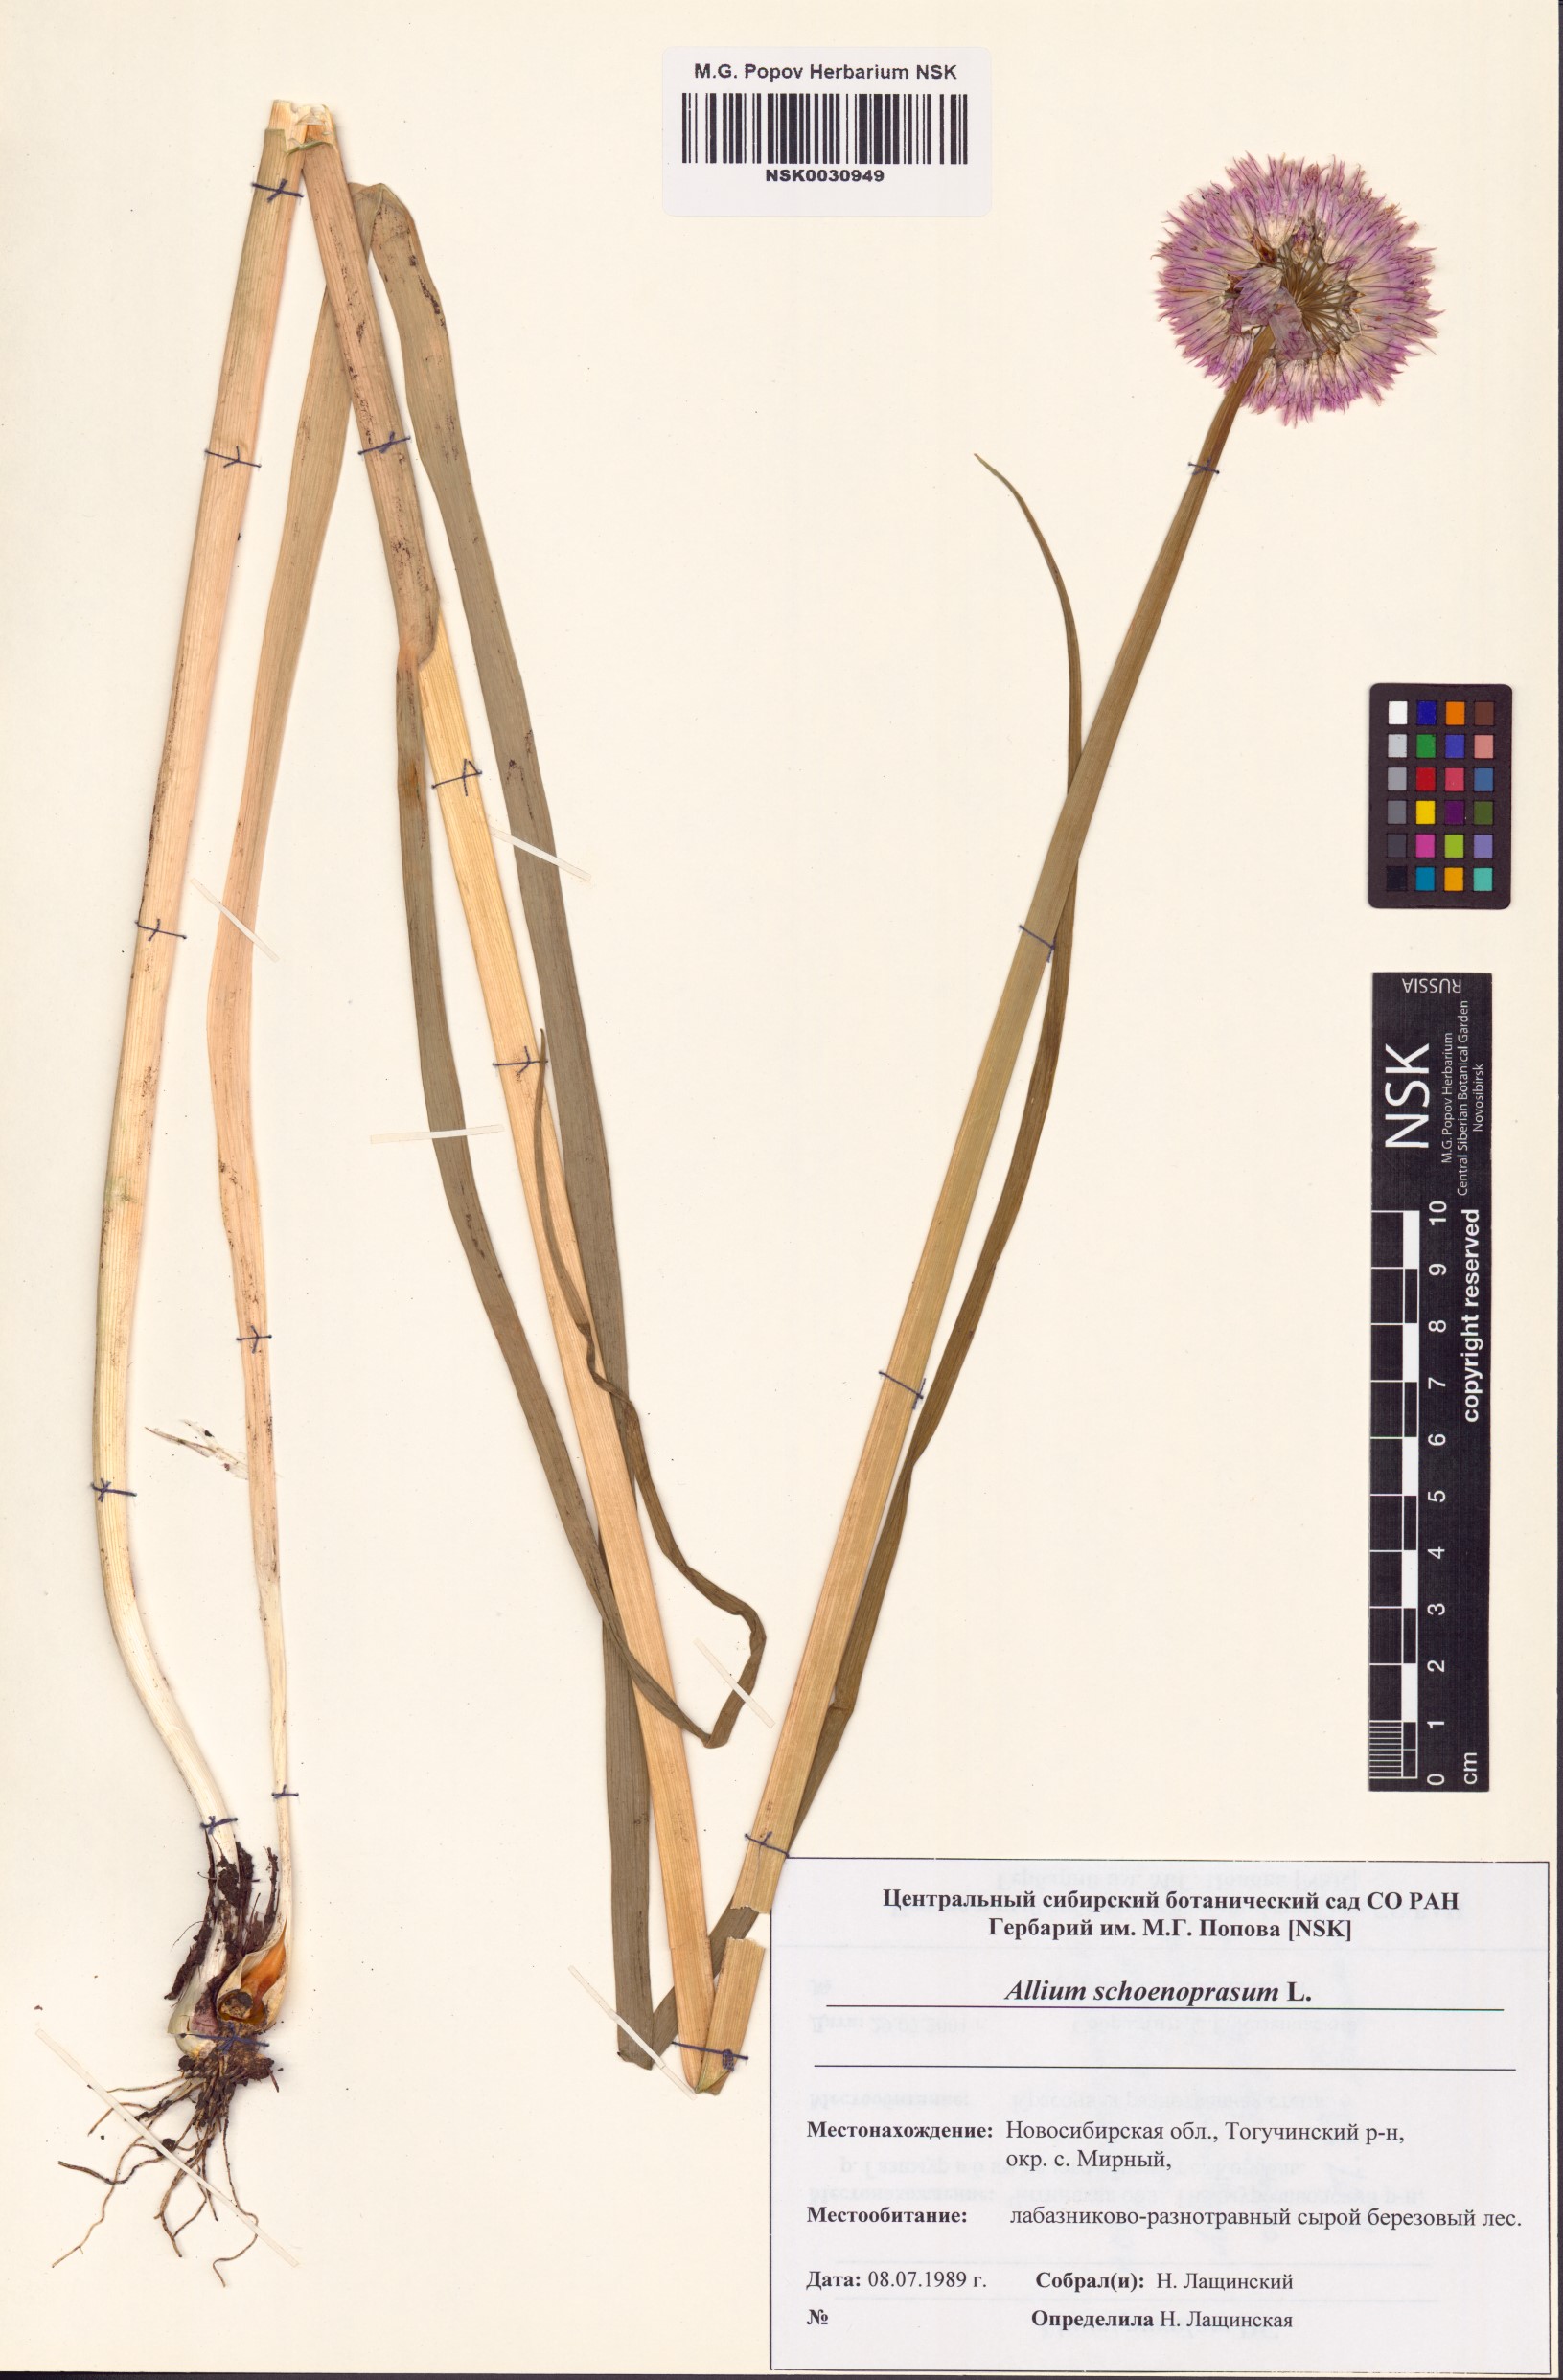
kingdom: Plantae
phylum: Tracheophyta
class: Liliopsida
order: Asparagales
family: Amaryllidaceae
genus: Allium
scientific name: Allium schoenoprasum
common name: Chives
